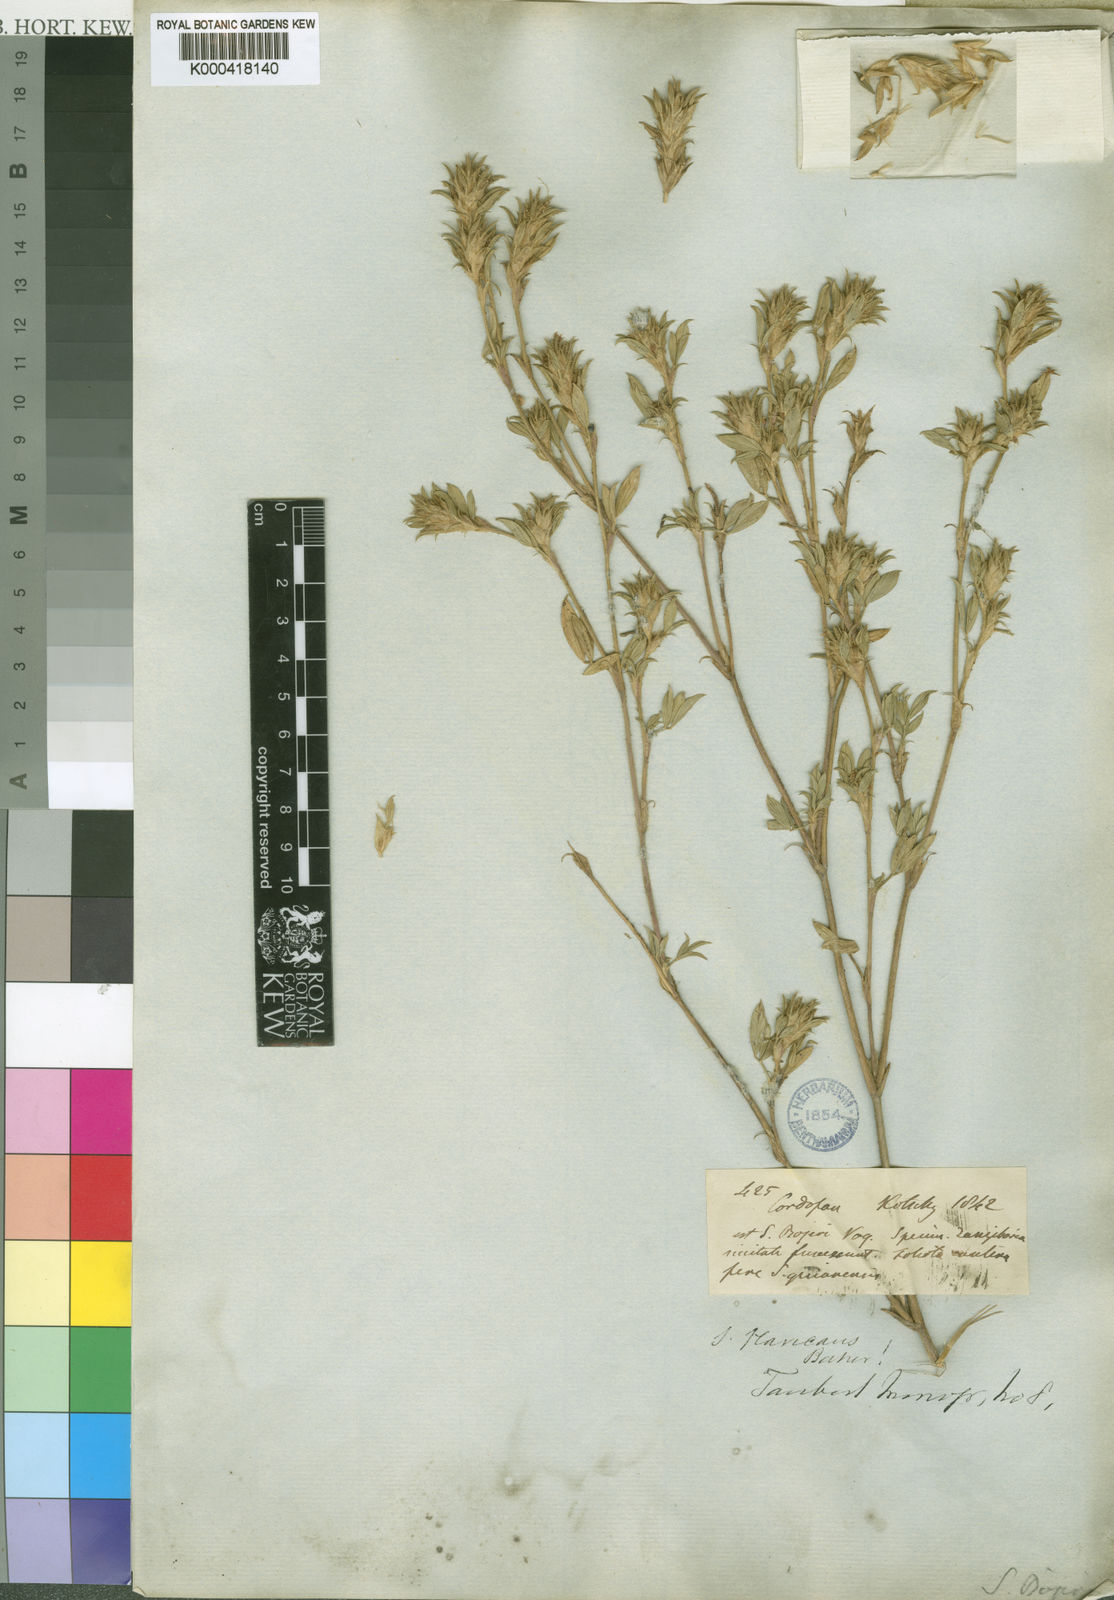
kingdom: Plantae
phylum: Tracheophyta
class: Magnoliopsida
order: Fabales
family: Fabaceae
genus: Stylosanthes
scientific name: Stylosanthes fruticosa
